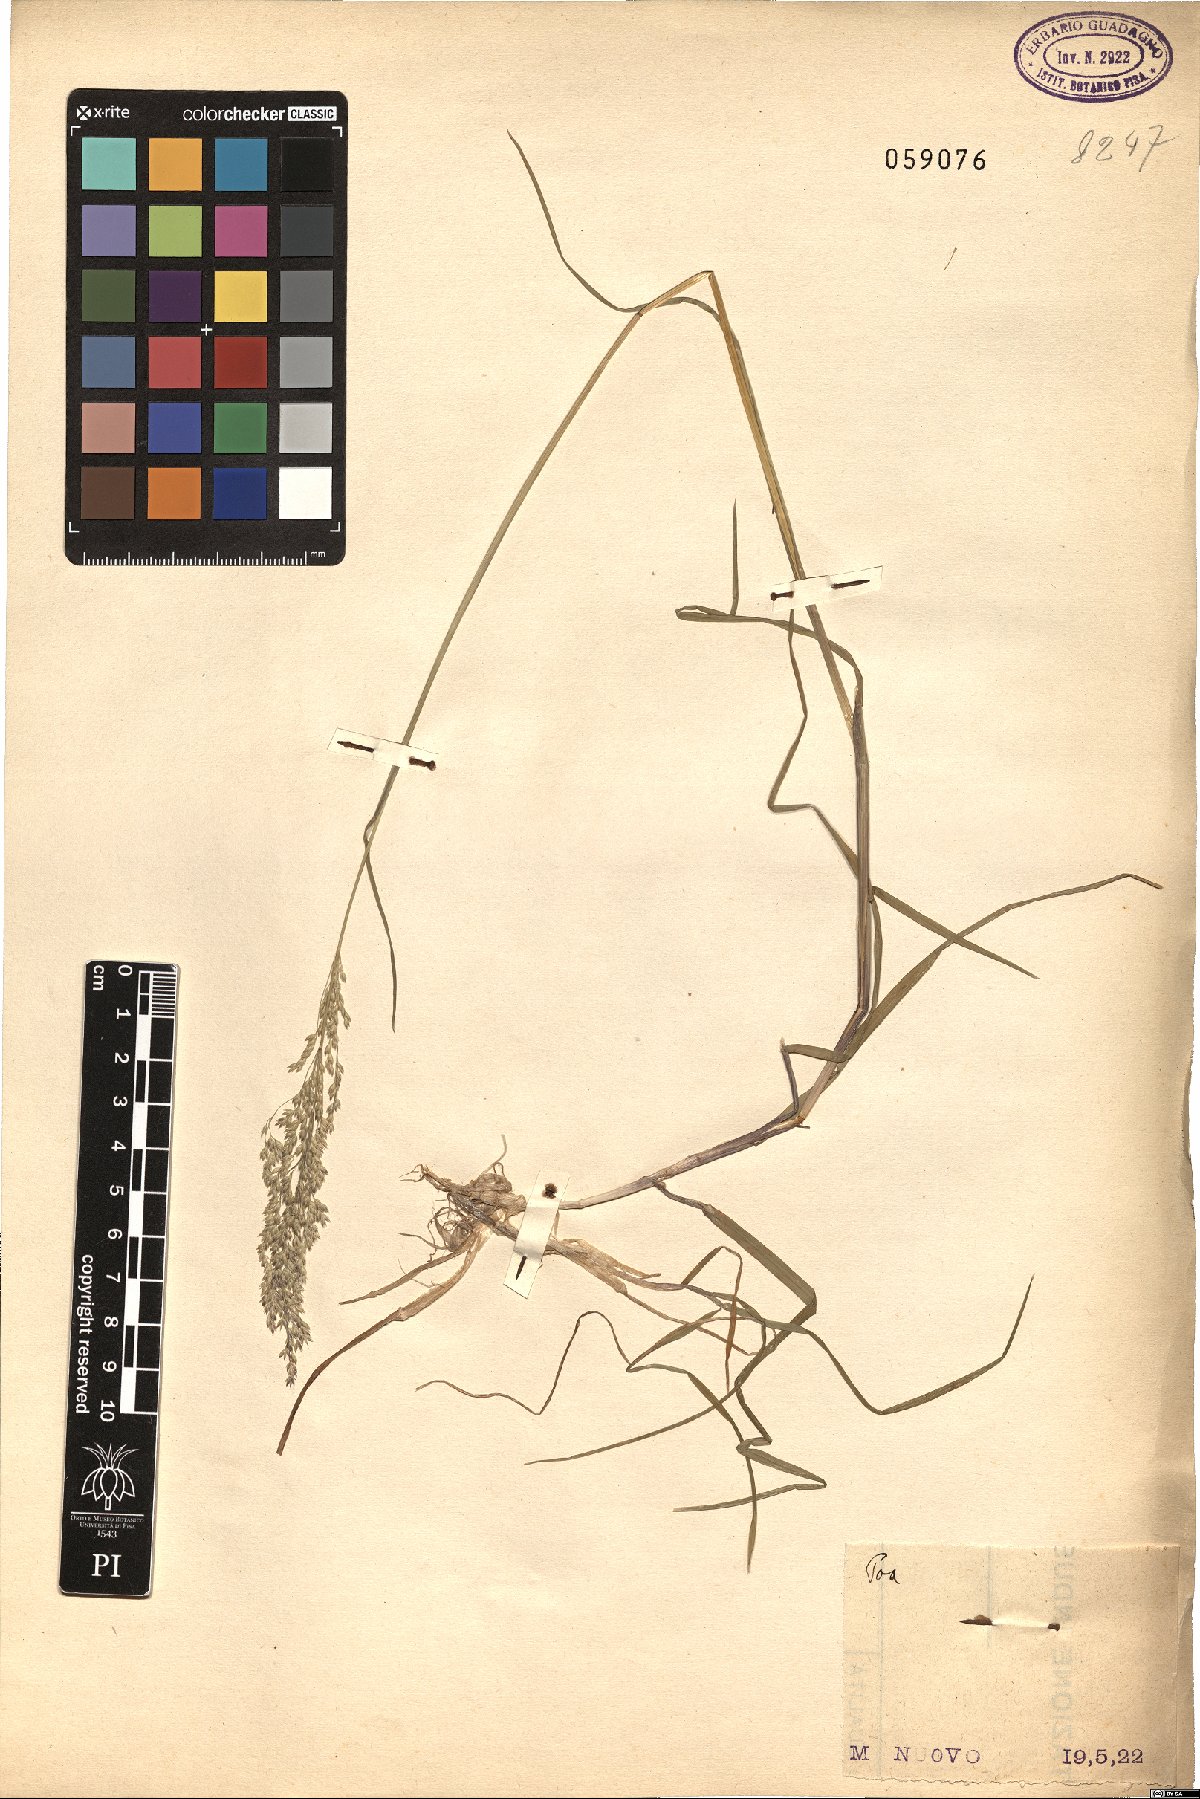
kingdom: Plantae
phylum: Tracheophyta
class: Liliopsida
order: Poales
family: Poaceae
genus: Poa
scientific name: Poa
